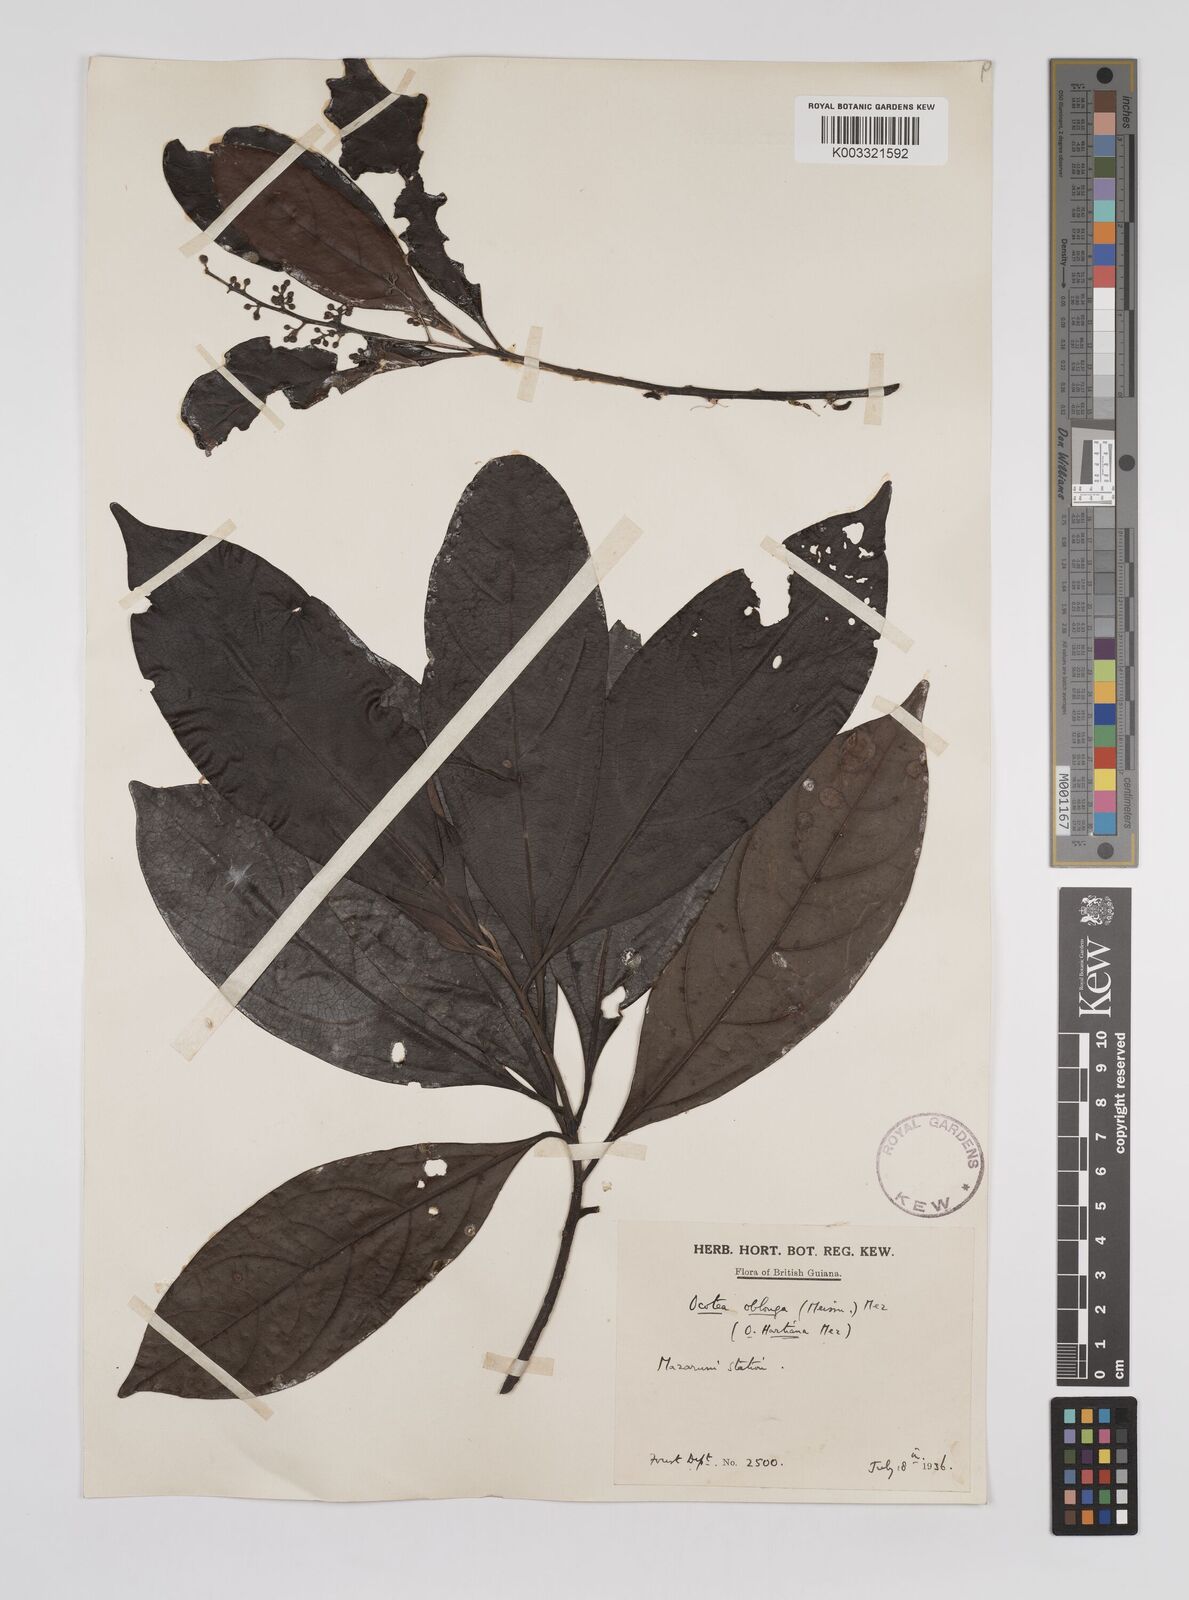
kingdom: Plantae
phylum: Tracheophyta
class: Magnoliopsida
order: Laurales
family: Lauraceae
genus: Ocotea
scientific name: Ocotea oblonga
